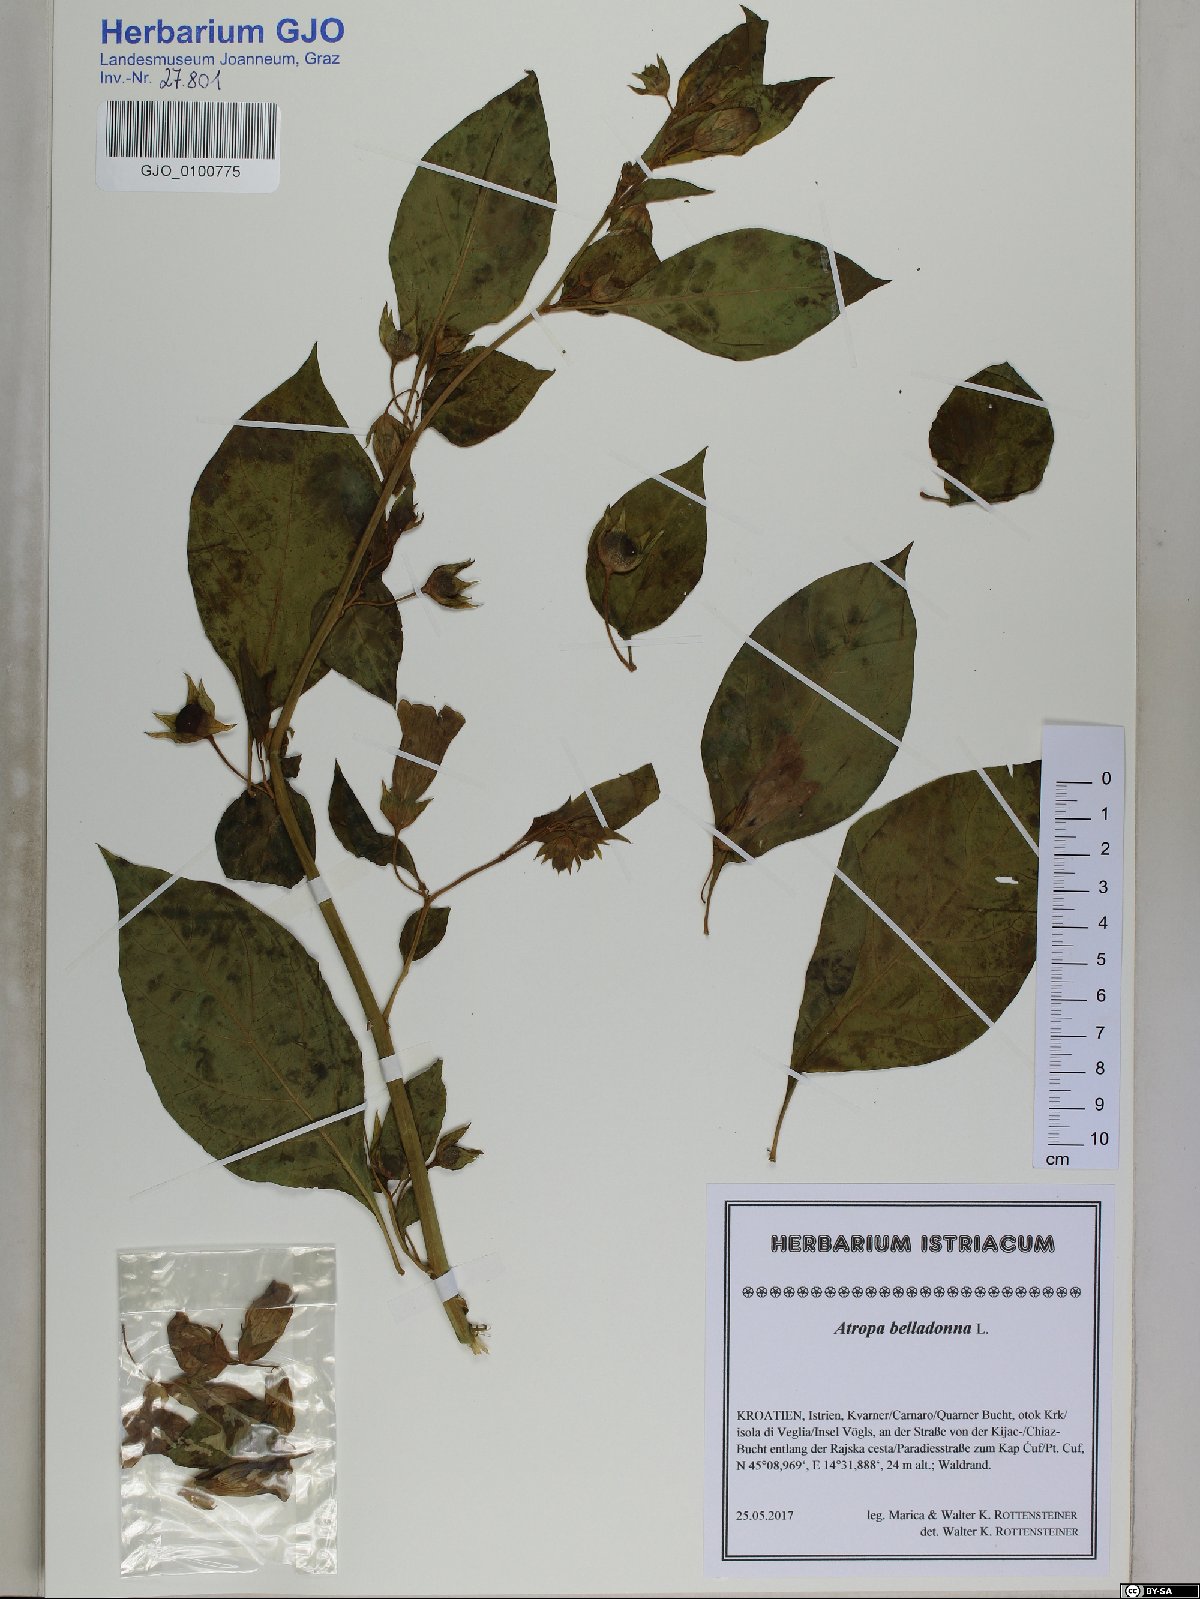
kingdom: Plantae
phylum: Tracheophyta
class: Magnoliopsida
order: Solanales
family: Solanaceae
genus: Atropa
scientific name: Atropa belladonna
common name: Deadly nightshade
